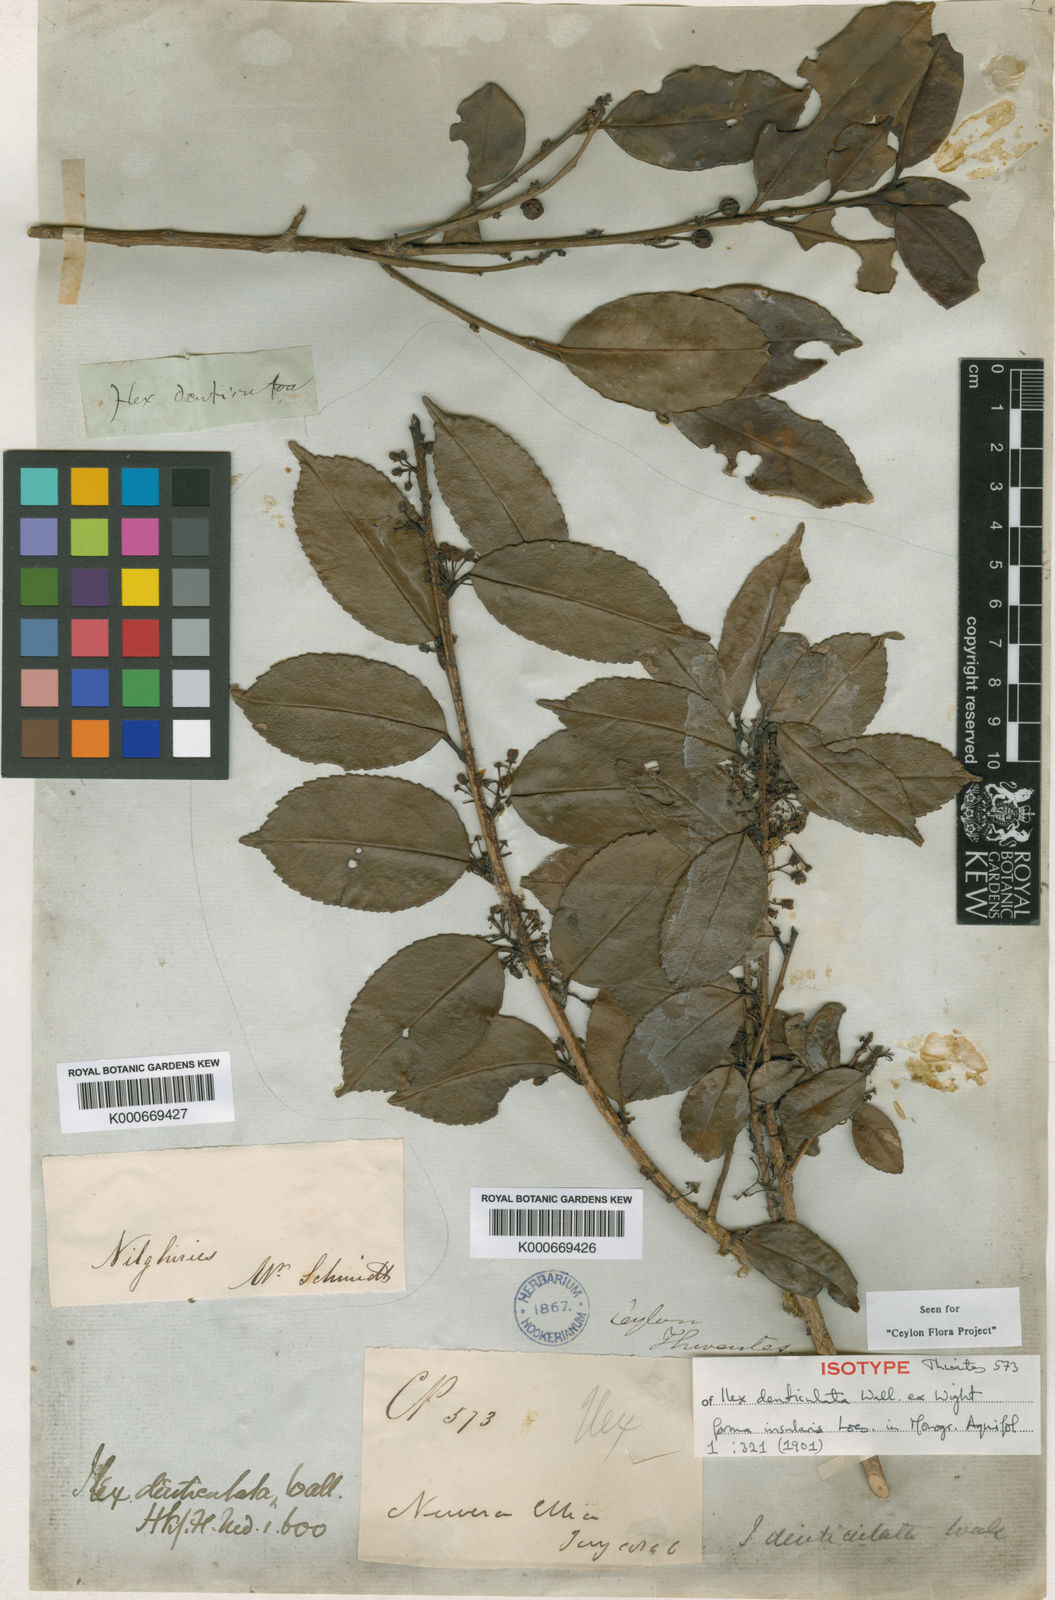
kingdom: Plantae
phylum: Tracheophyta
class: Magnoliopsida
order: Aquifoliales
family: Aquifoliaceae
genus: Ilex
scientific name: Ilex denticulata
